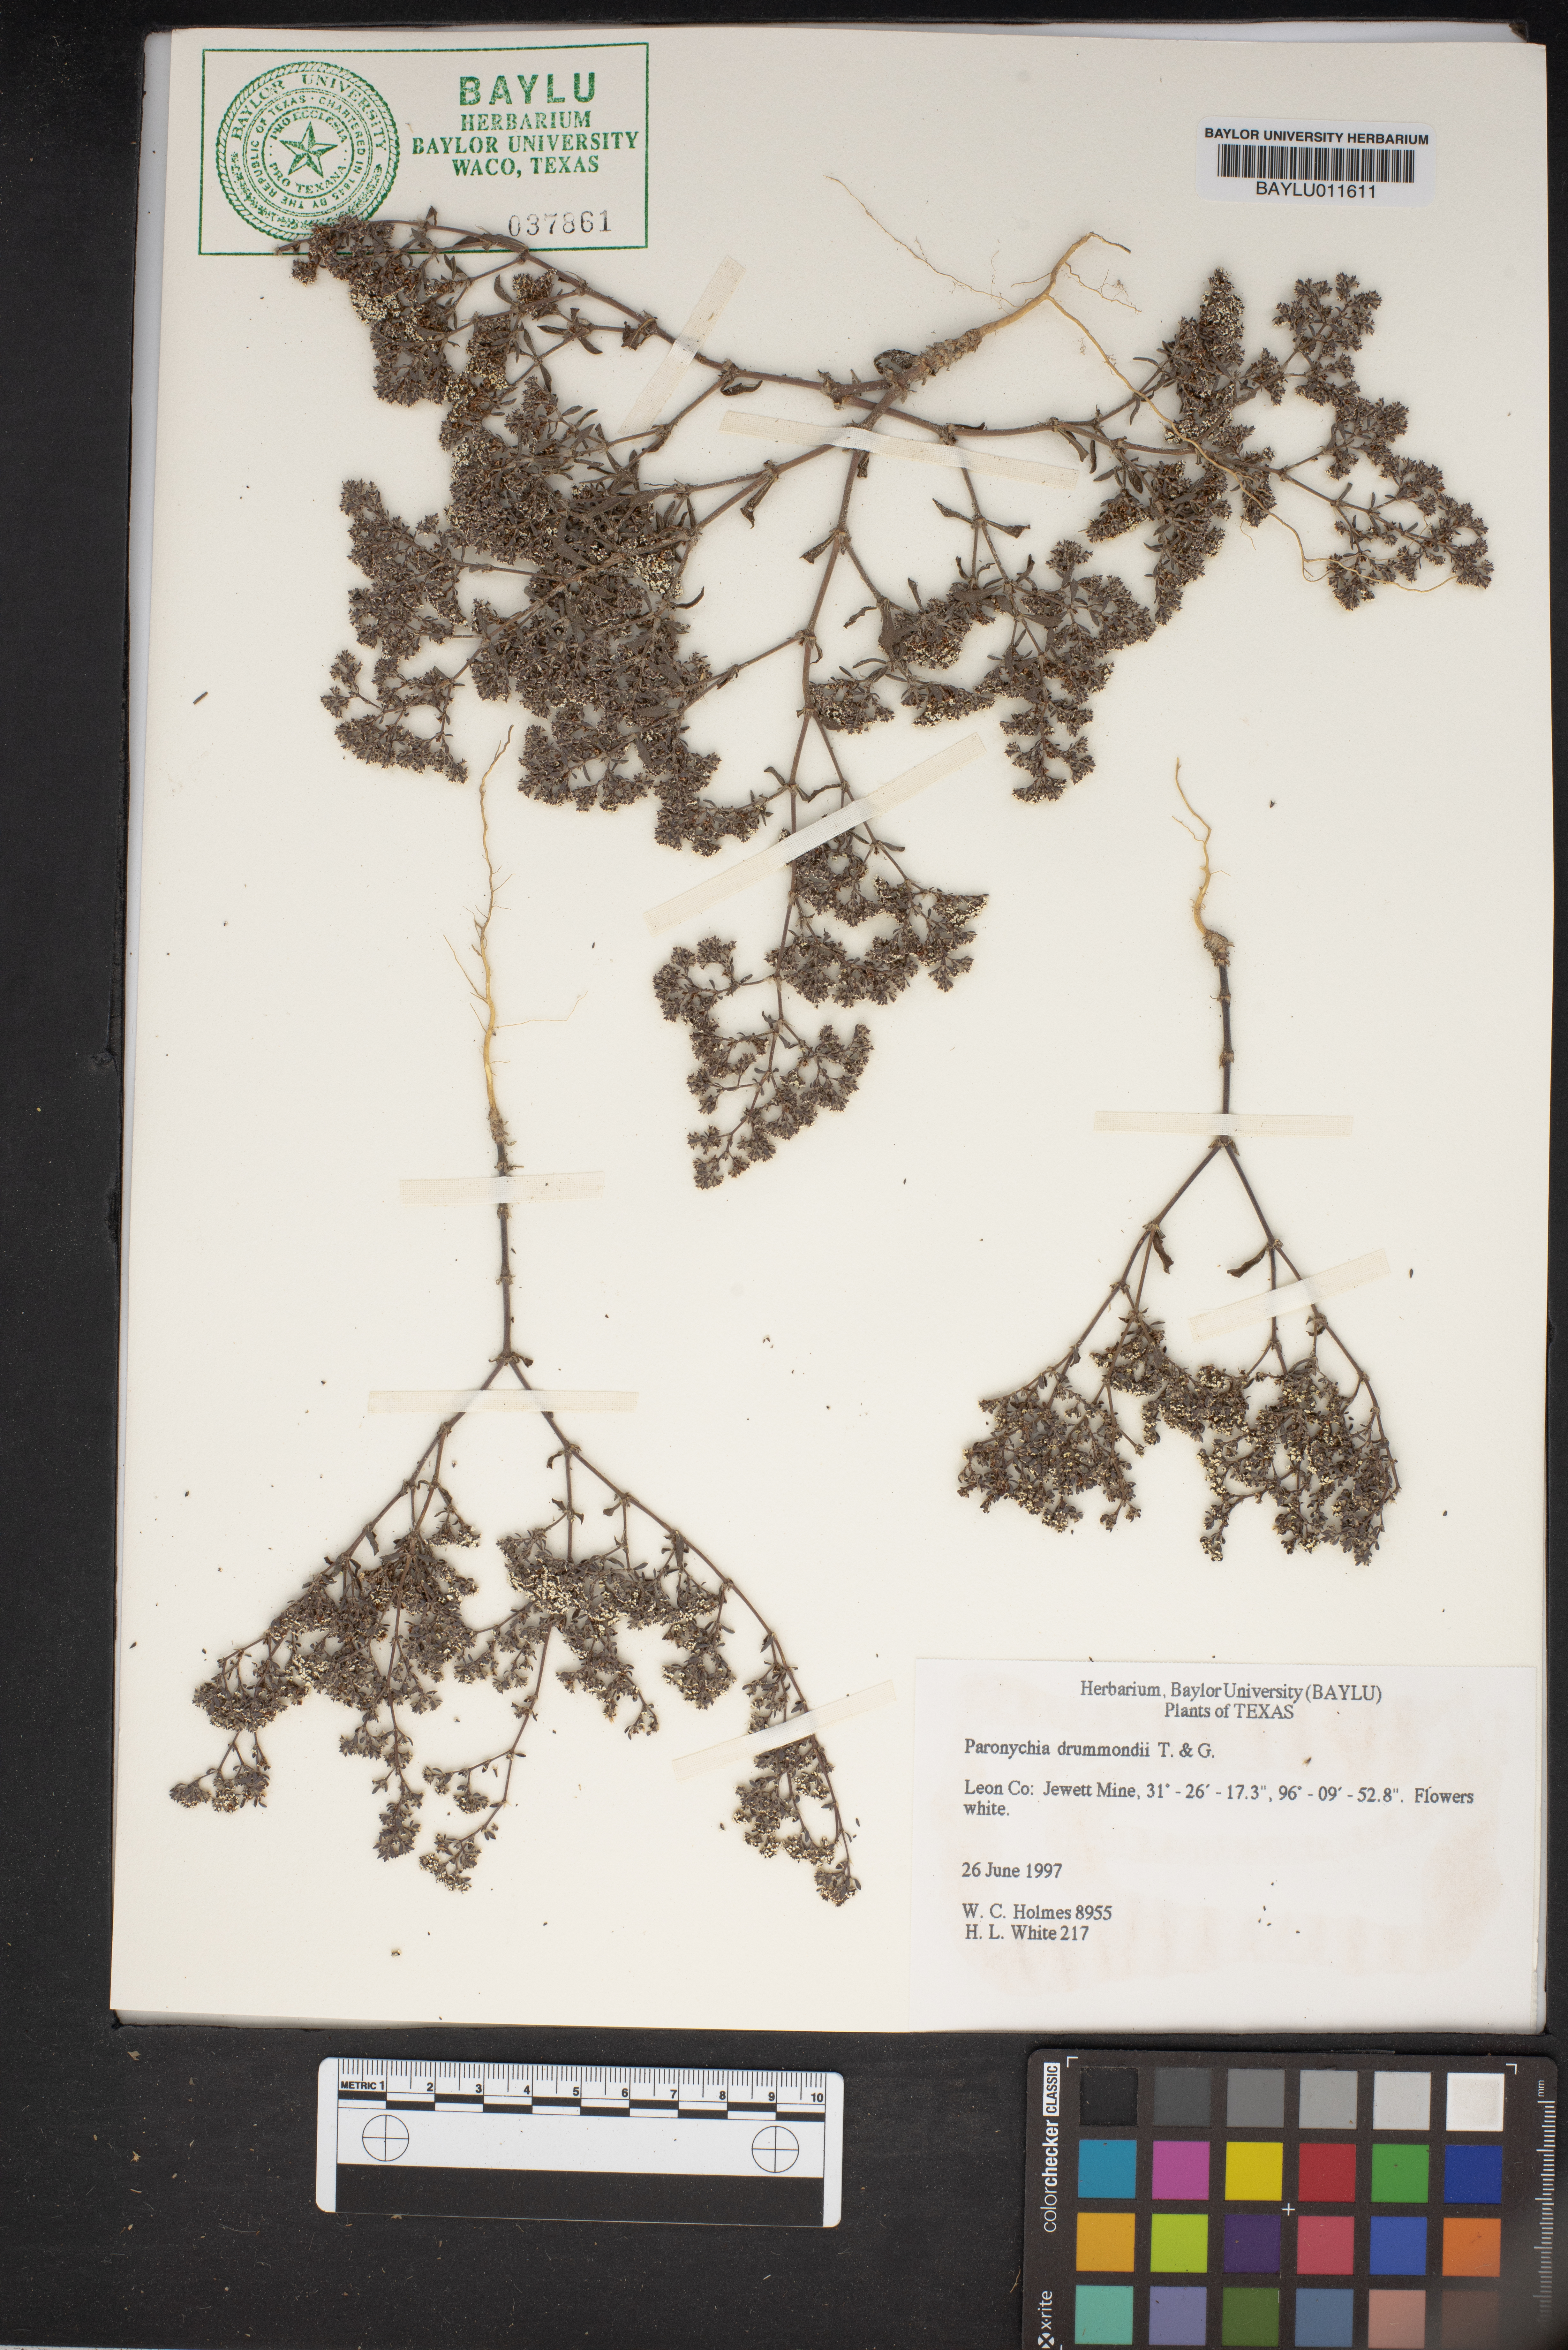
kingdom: Plantae
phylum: Tracheophyta
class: Magnoliopsida
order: Caryophyllales
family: Caryophyllaceae
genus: Paronychia
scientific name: Paronychia drummondii
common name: Drummond's nailwort
